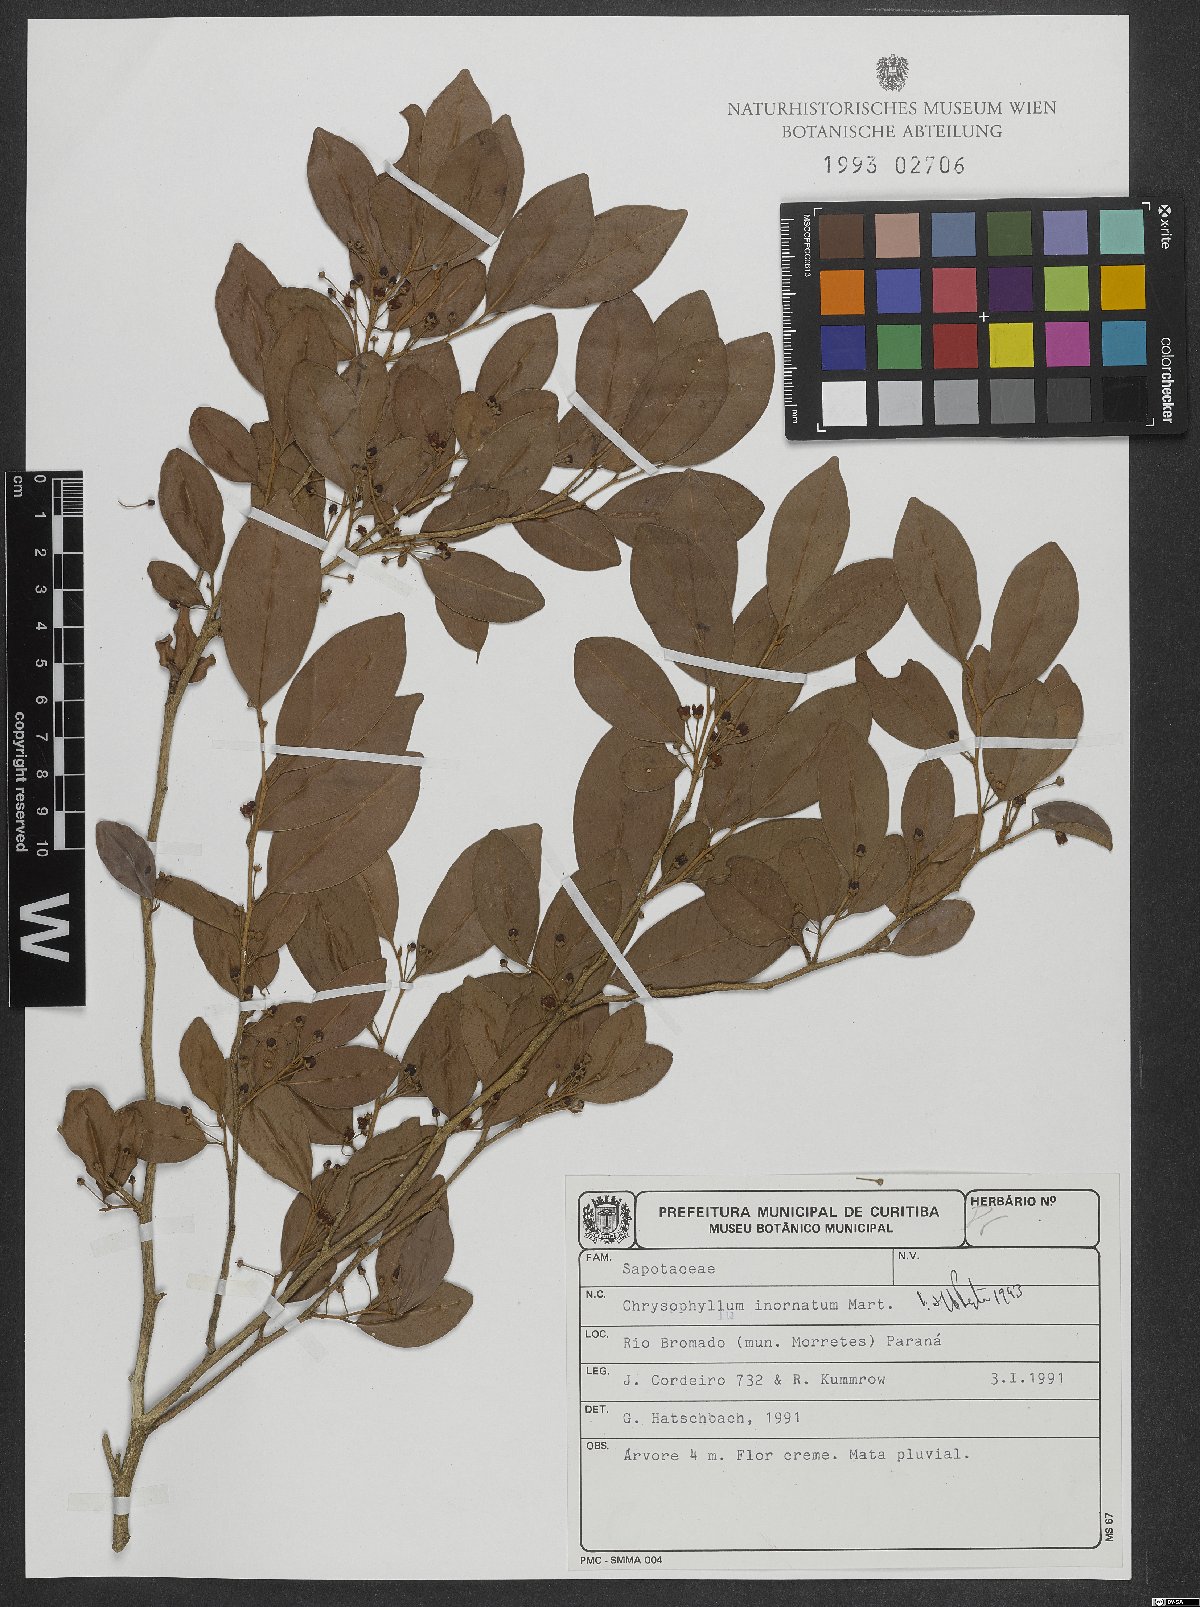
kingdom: Plantae
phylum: Tracheophyta
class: Magnoliopsida
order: Ericales
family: Sapotaceae
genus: Chrysophyllum
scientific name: Chrysophyllum inornatum
